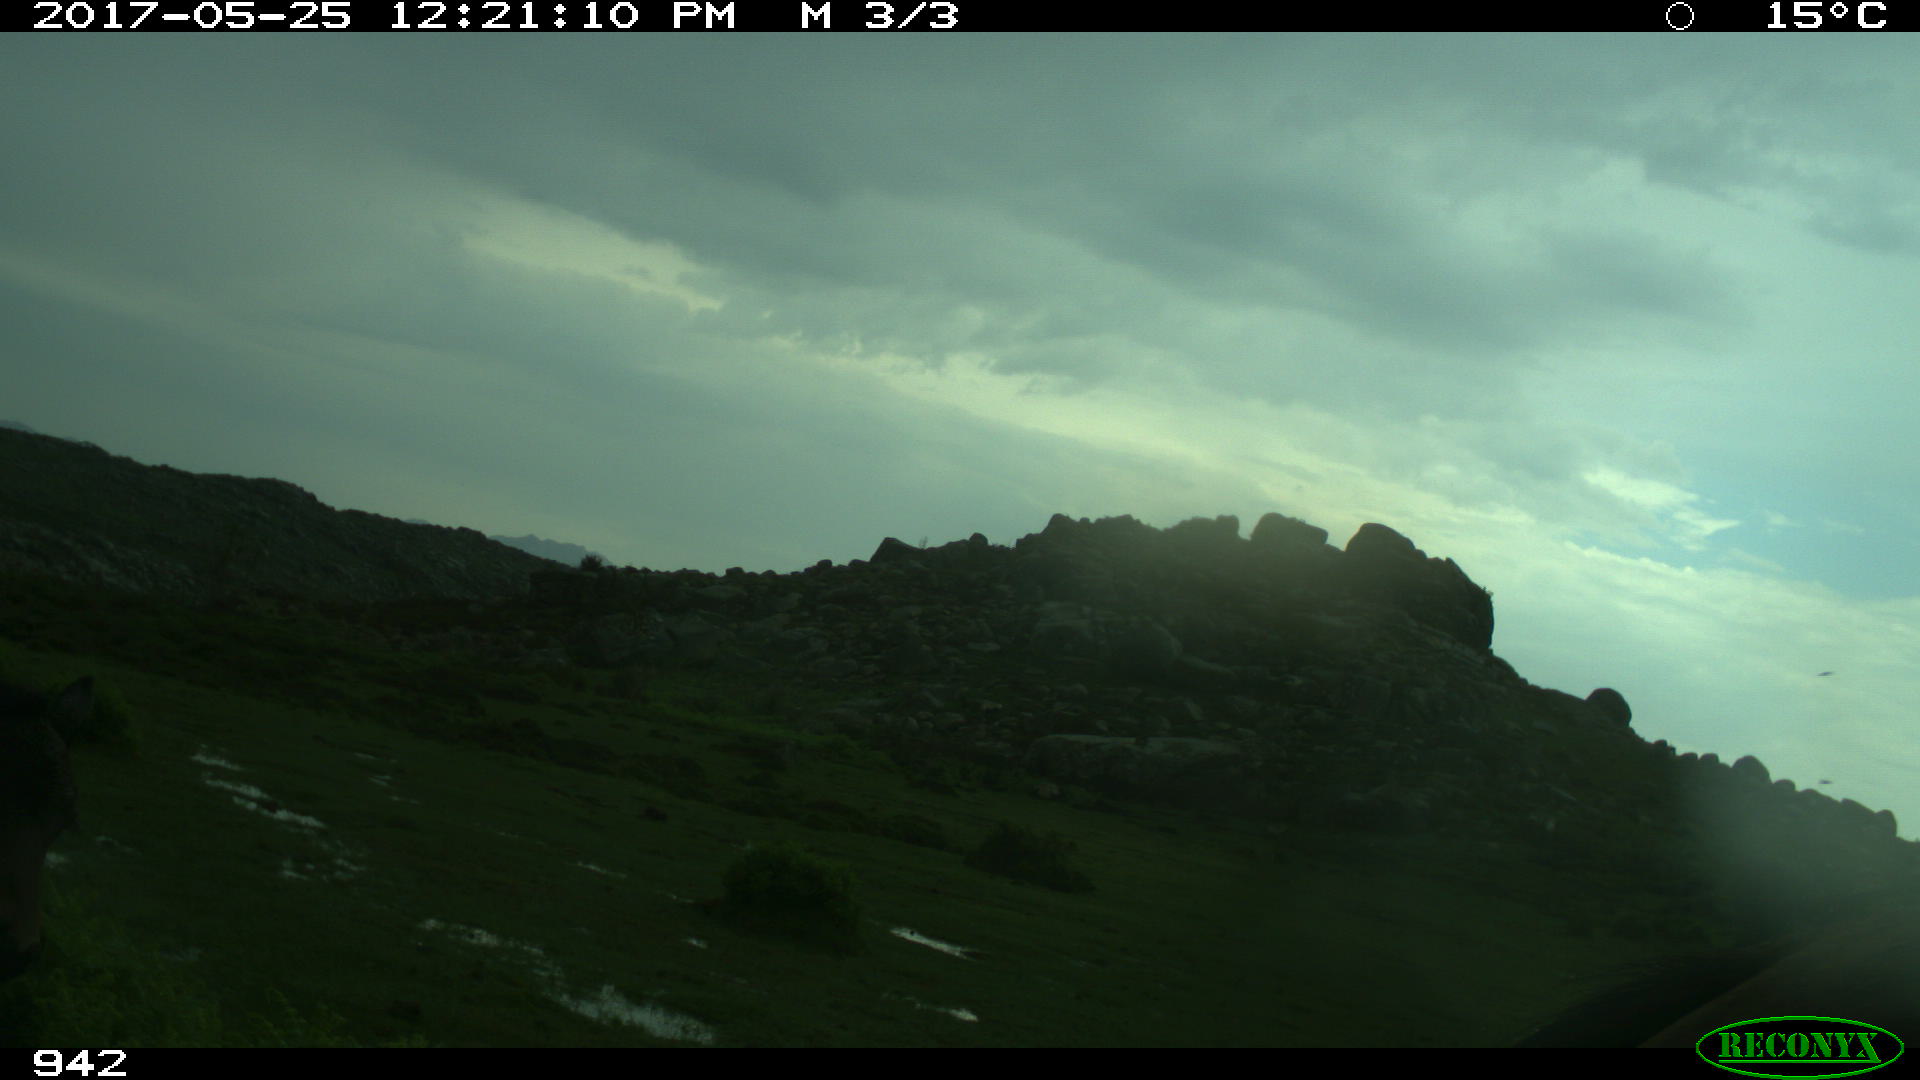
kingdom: Animalia
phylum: Chordata
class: Mammalia
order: Perissodactyla
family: Equidae
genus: Equus
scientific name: Equus caballus
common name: Horse
